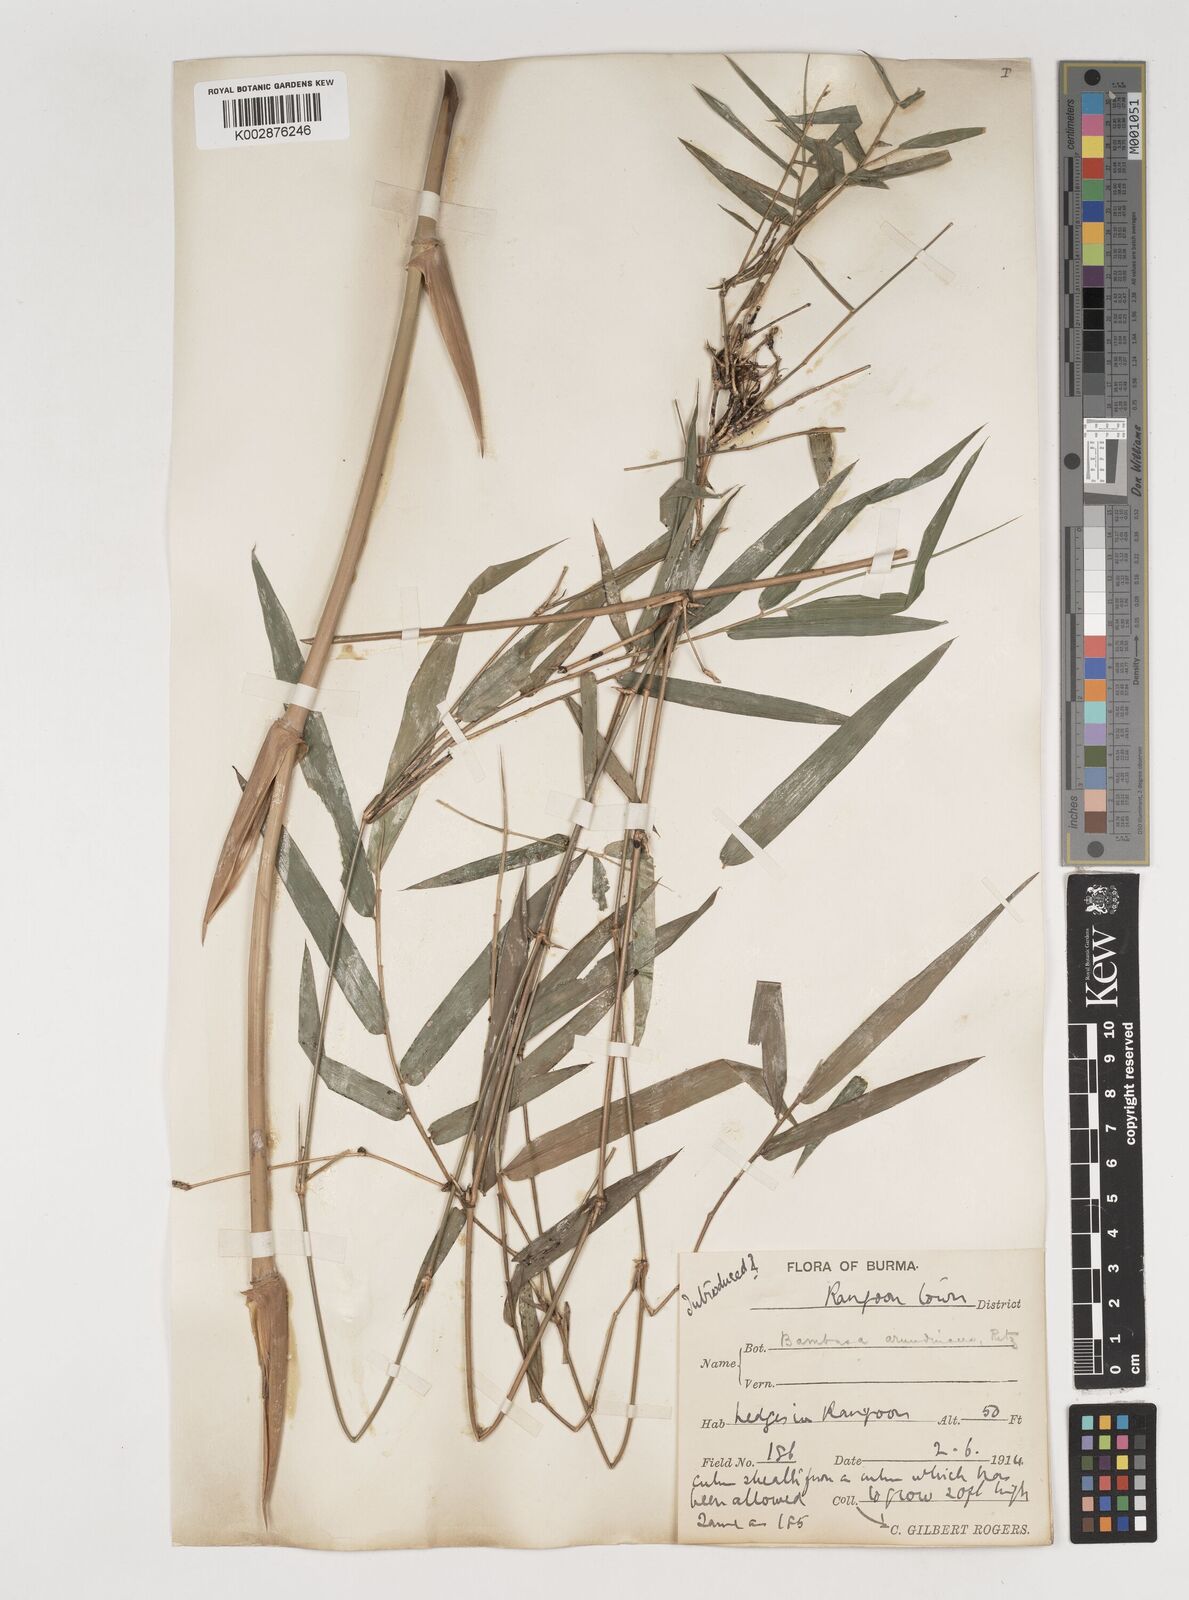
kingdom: Plantae
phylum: Tracheophyta
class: Liliopsida
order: Poales
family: Poaceae
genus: Bambusa
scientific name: Bambusa bambos
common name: Indian thorny bamboo
